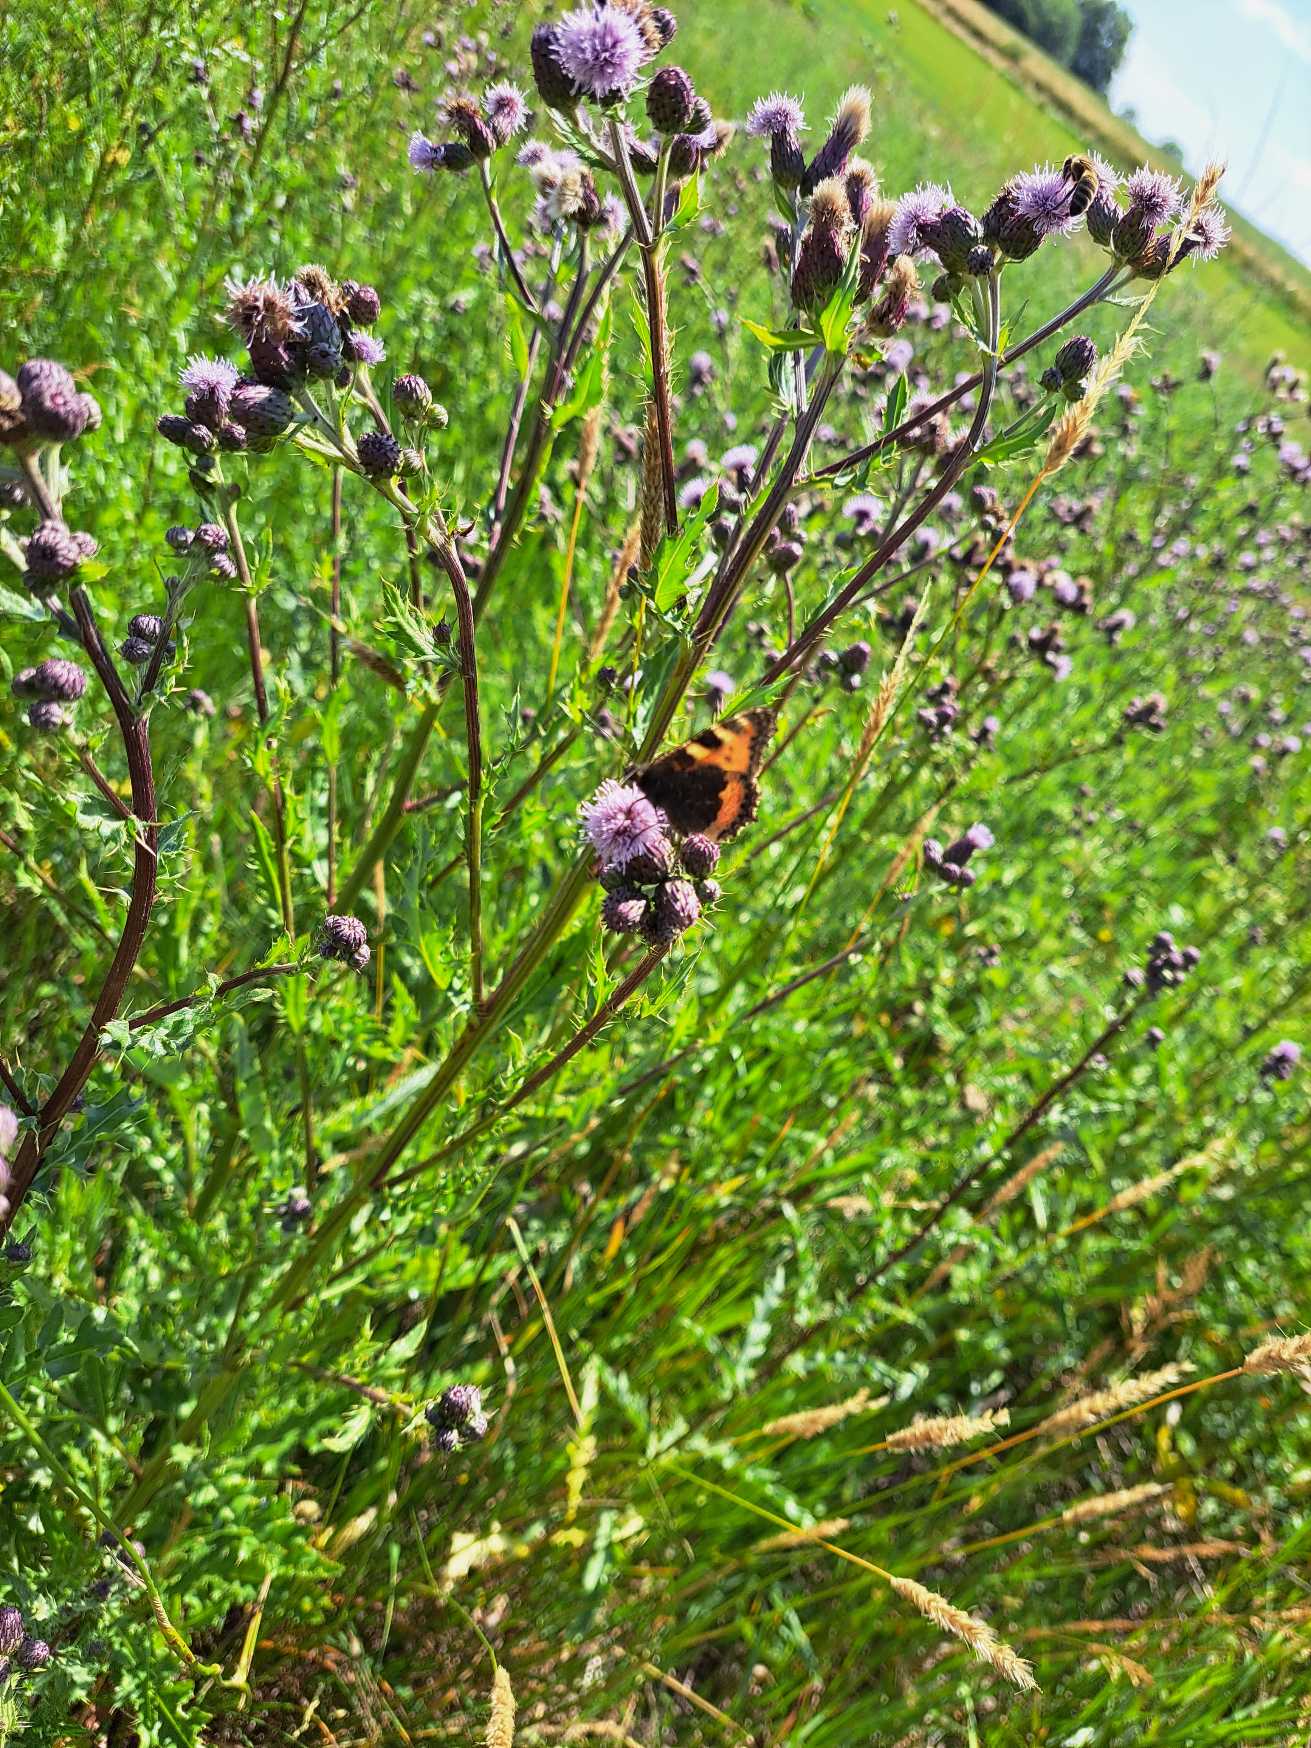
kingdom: Animalia
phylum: Arthropoda
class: Insecta
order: Lepidoptera
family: Nymphalidae
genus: Aglais
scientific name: Aglais urticae
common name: Nældens takvinge
